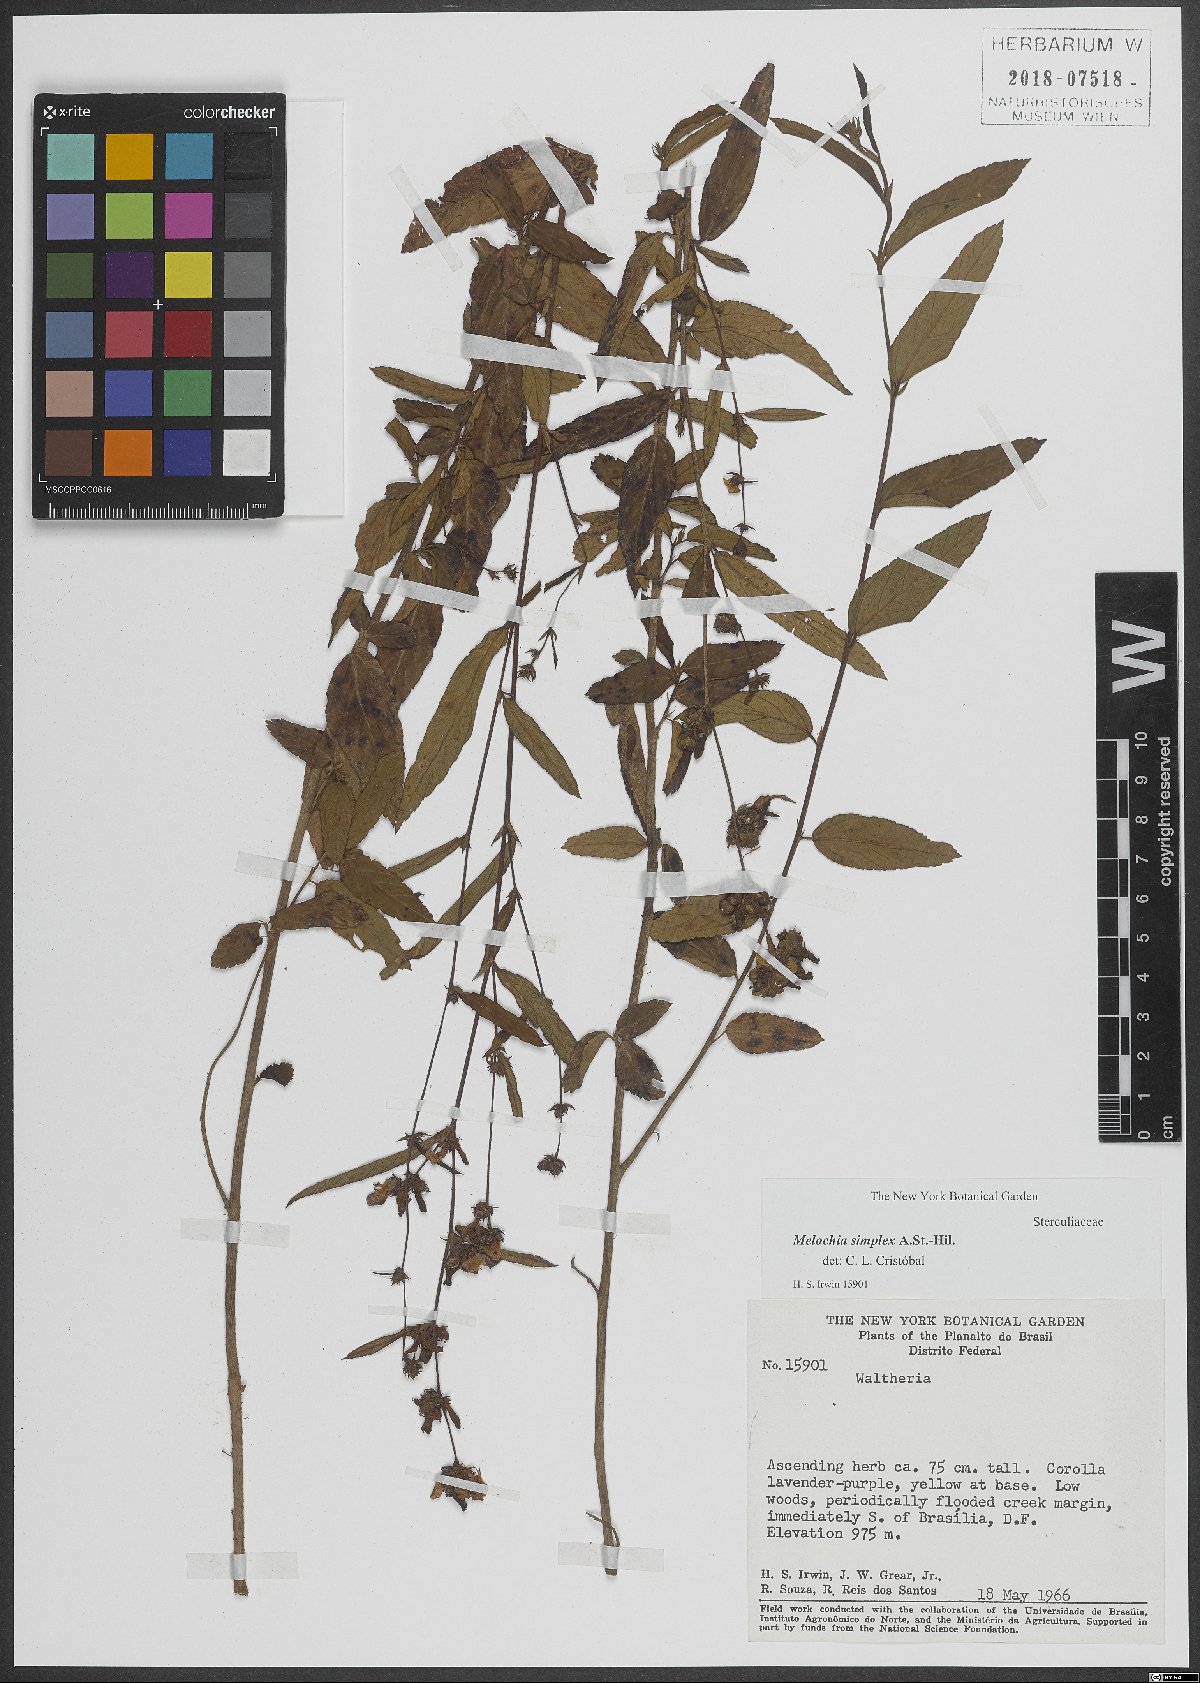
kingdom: Plantae
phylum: Tracheophyta
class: Magnoliopsida
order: Malvales
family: Malvaceae
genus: Melochia
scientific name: Melochia simplex
